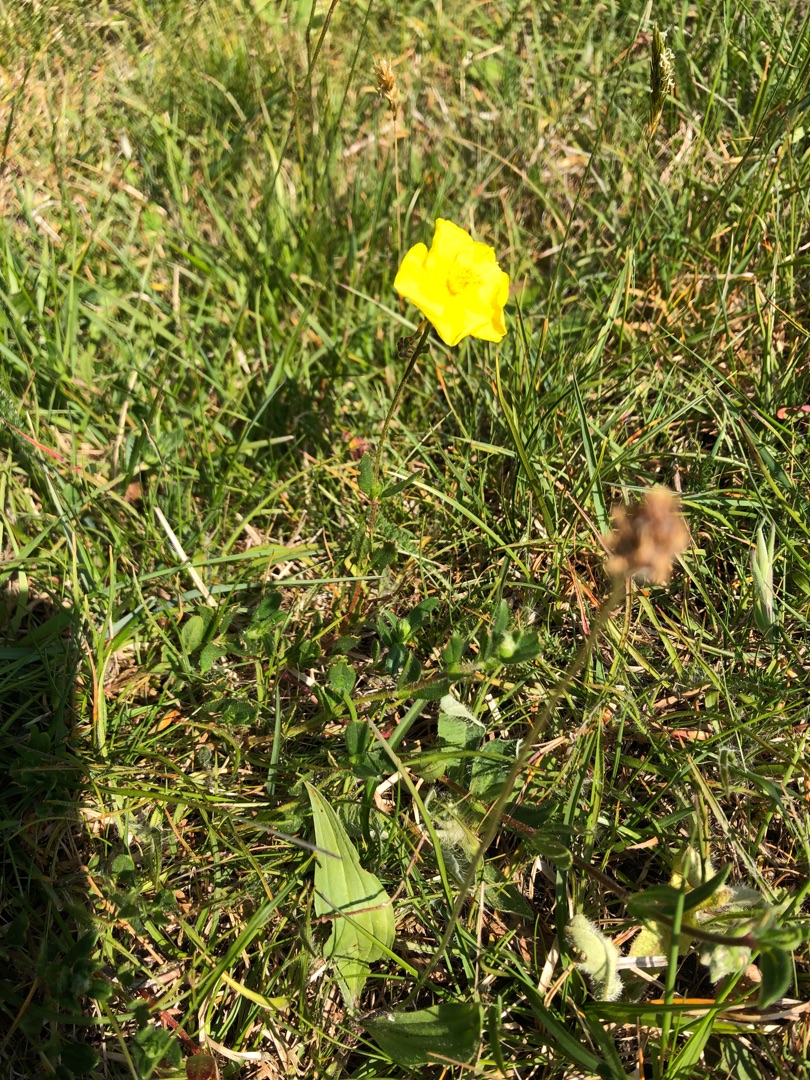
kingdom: Plantae
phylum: Tracheophyta
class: Magnoliopsida
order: Malvales
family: Cistaceae
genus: Helianthemum
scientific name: Helianthemum nummularium
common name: Bakke-soløje
